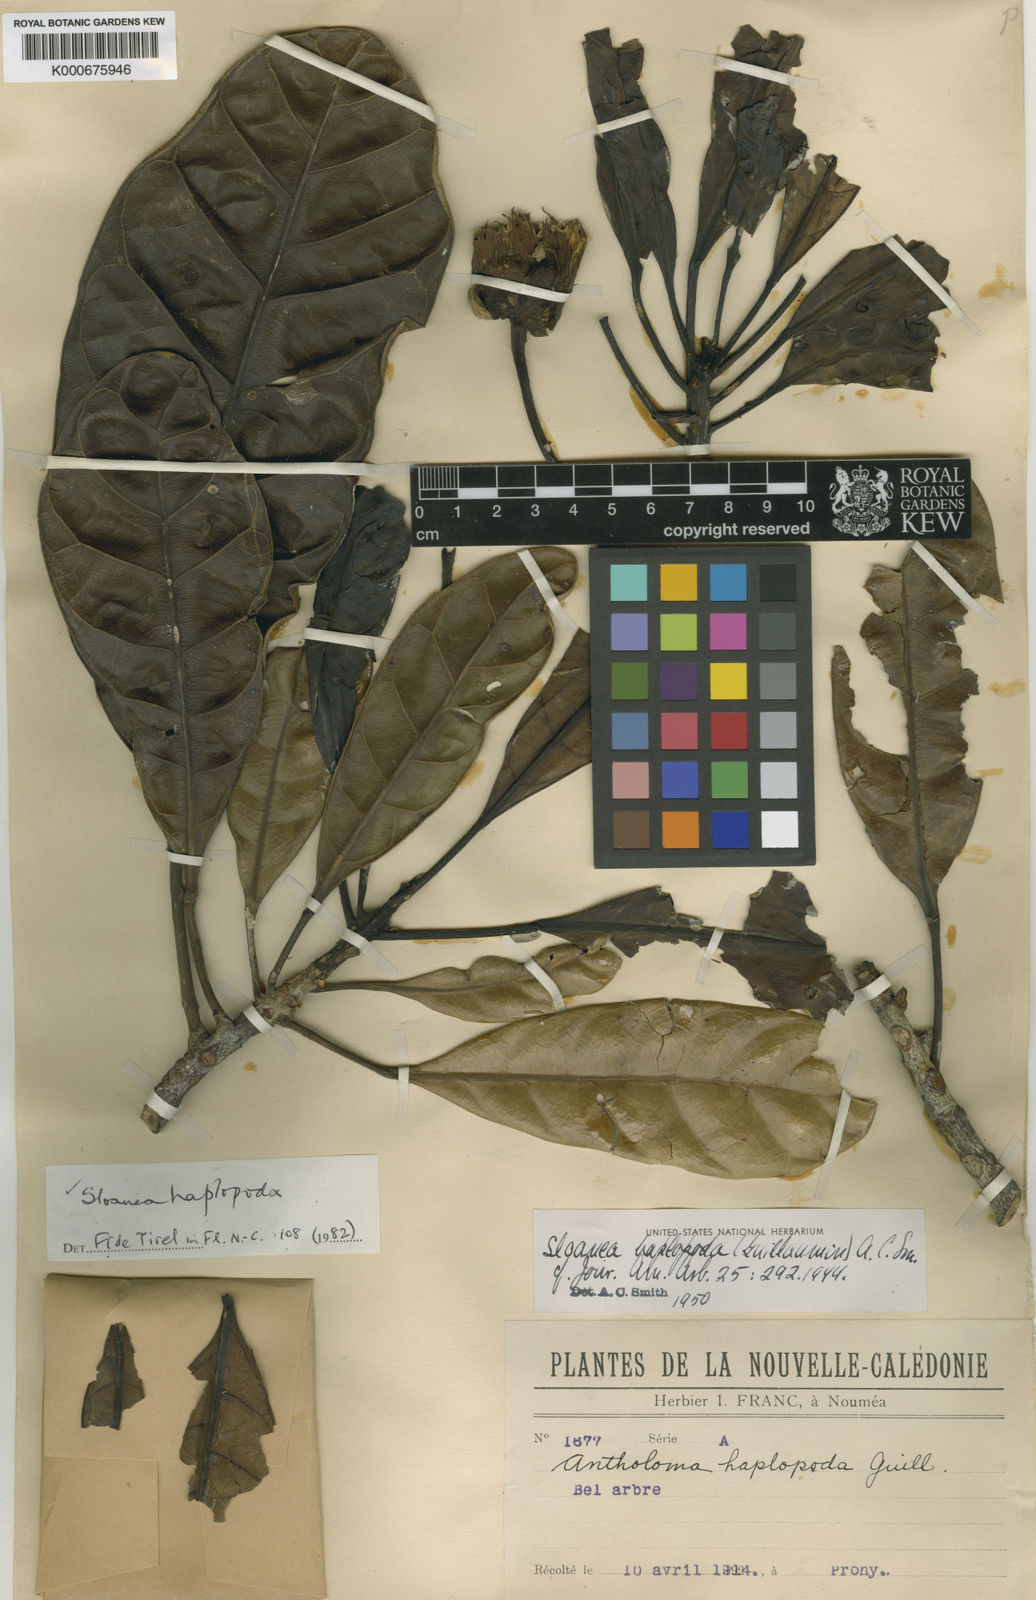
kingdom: Plantae
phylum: Tracheophyta
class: Magnoliopsida
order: Oxalidales
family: Elaeocarpaceae
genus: Sloanea
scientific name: Sloanea haplopoda
